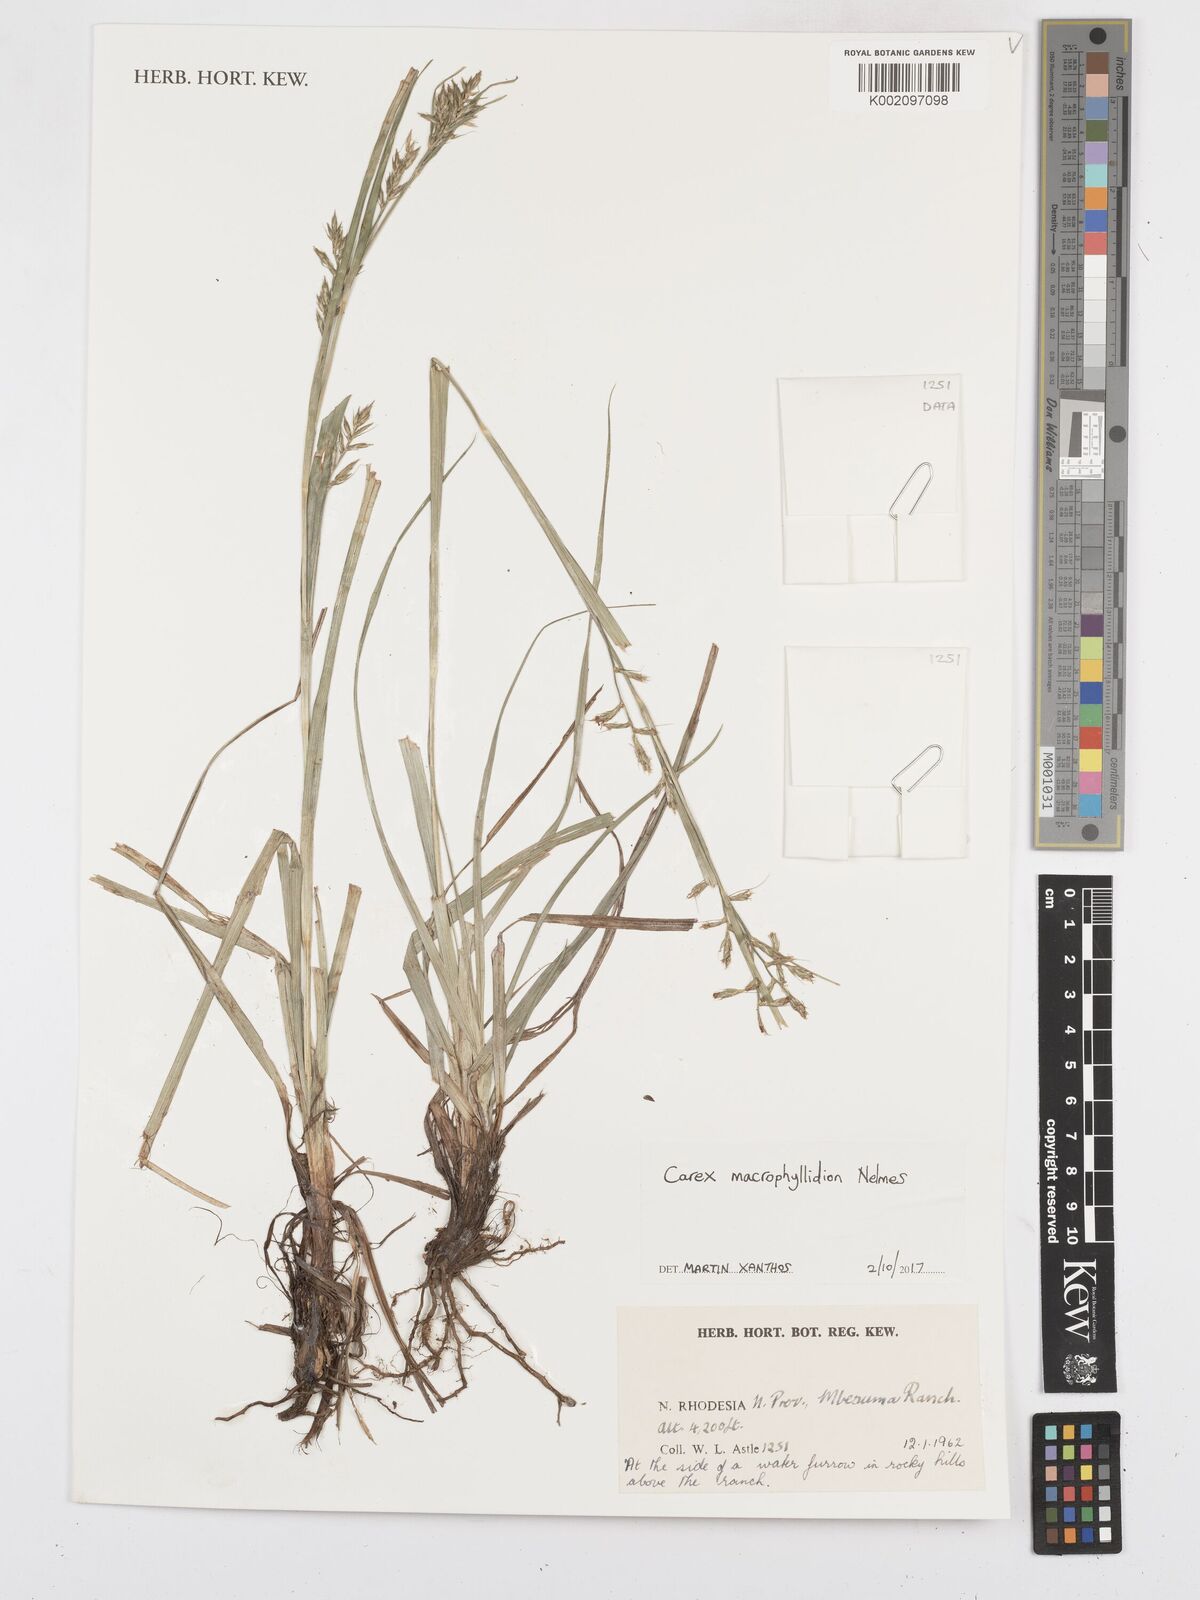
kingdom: Plantae
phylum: Tracheophyta
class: Liliopsida
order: Poales
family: Cyperaceae
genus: Carex
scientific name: Carex macrophyllidion
